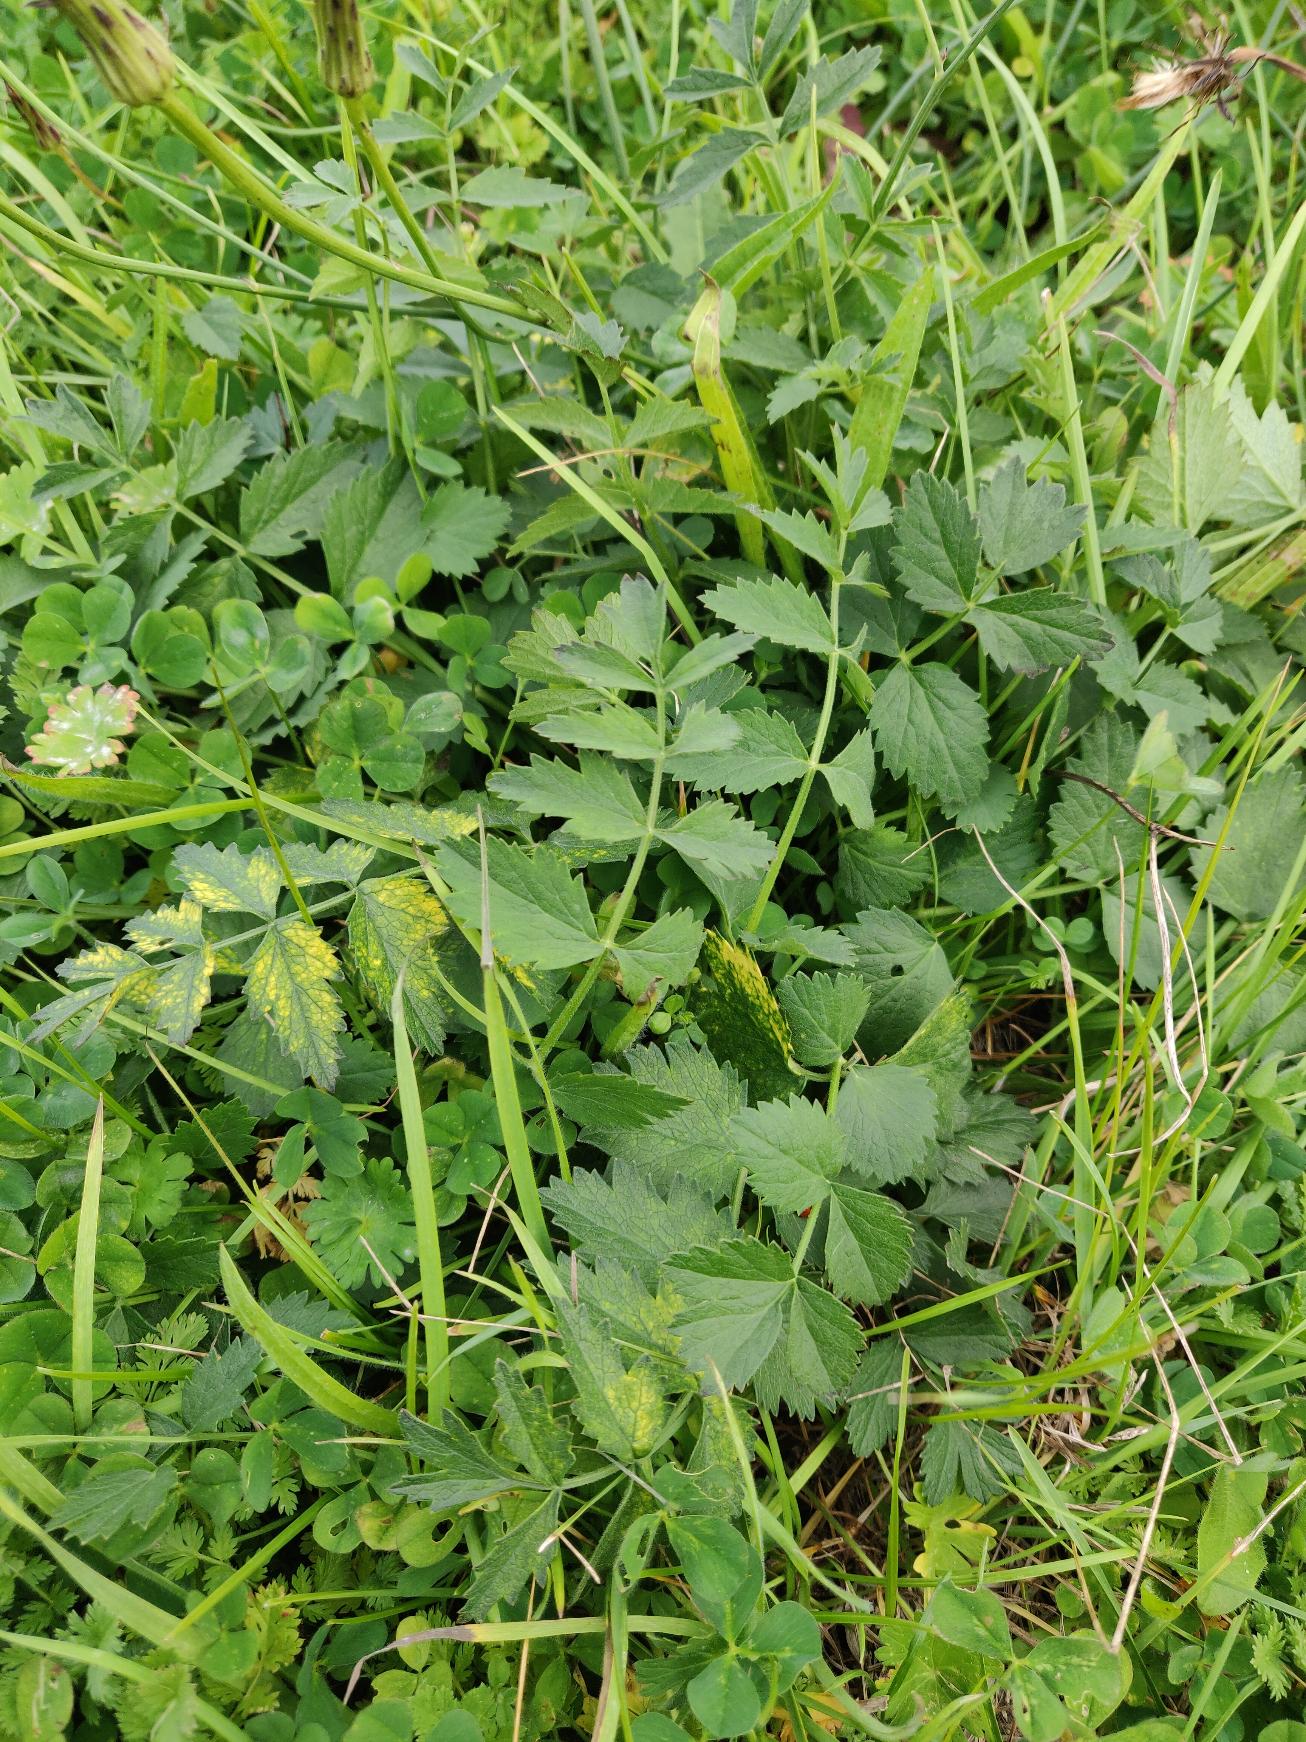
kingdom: Plantae
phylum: Tracheophyta
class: Magnoliopsida
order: Apiales
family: Apiaceae
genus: Pimpinella
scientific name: Pimpinella saxifraga
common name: Almindelig pimpinelle
